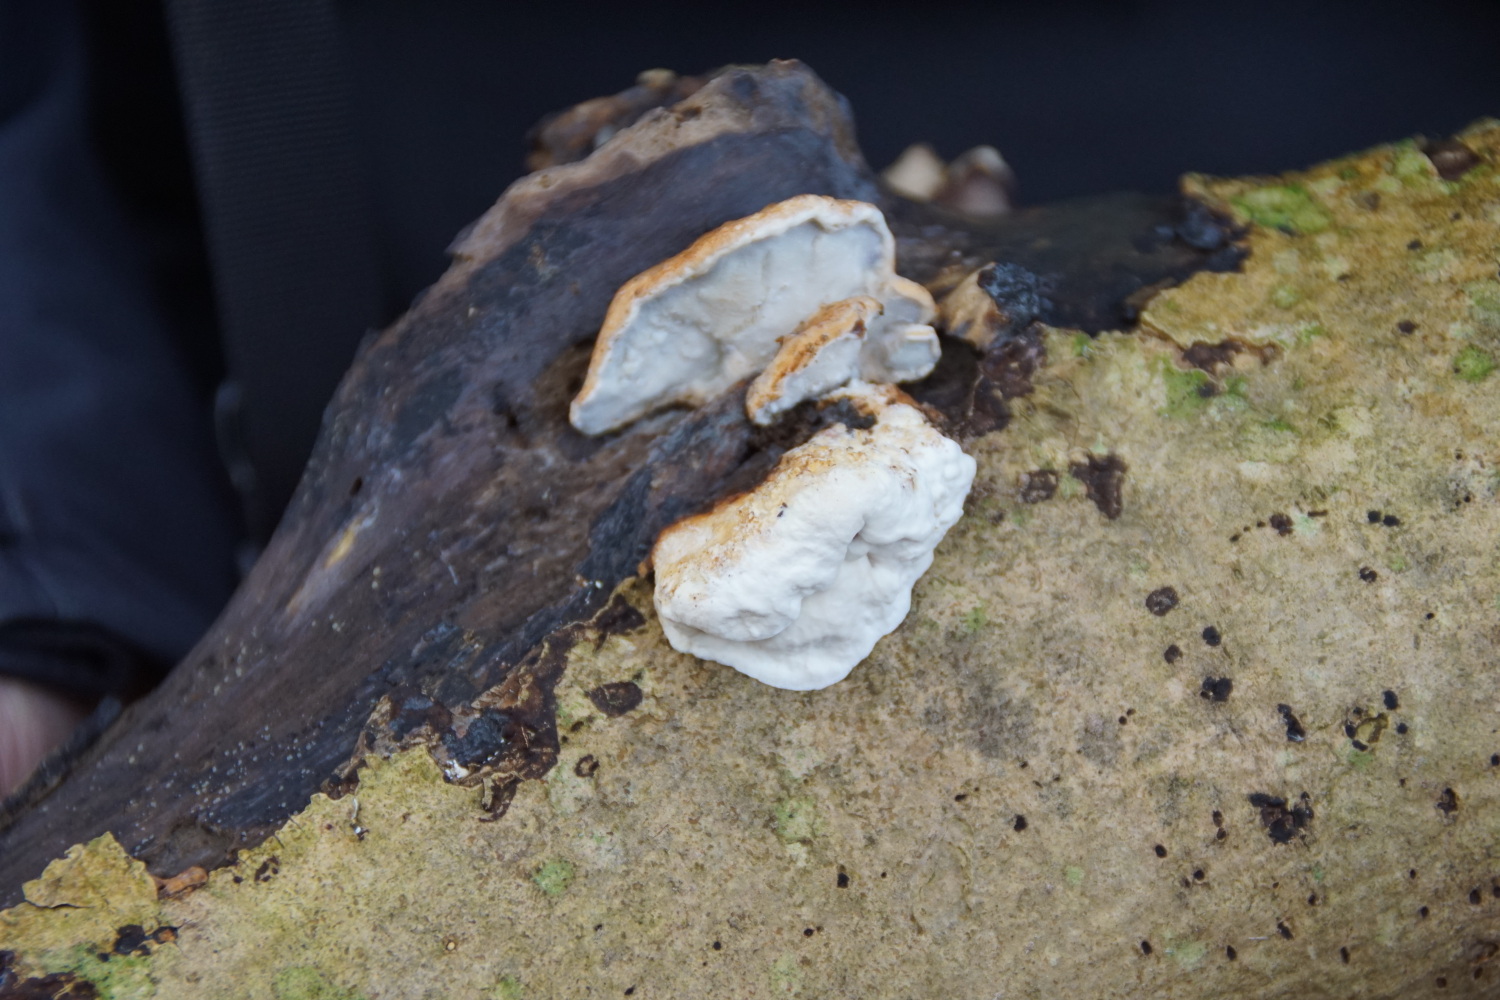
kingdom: Fungi
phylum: Basidiomycota
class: Agaricomycetes
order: Polyporales
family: Incrustoporiaceae
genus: Skeletocutis
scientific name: Skeletocutis nemoralis
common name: stor krystalporesvamp
